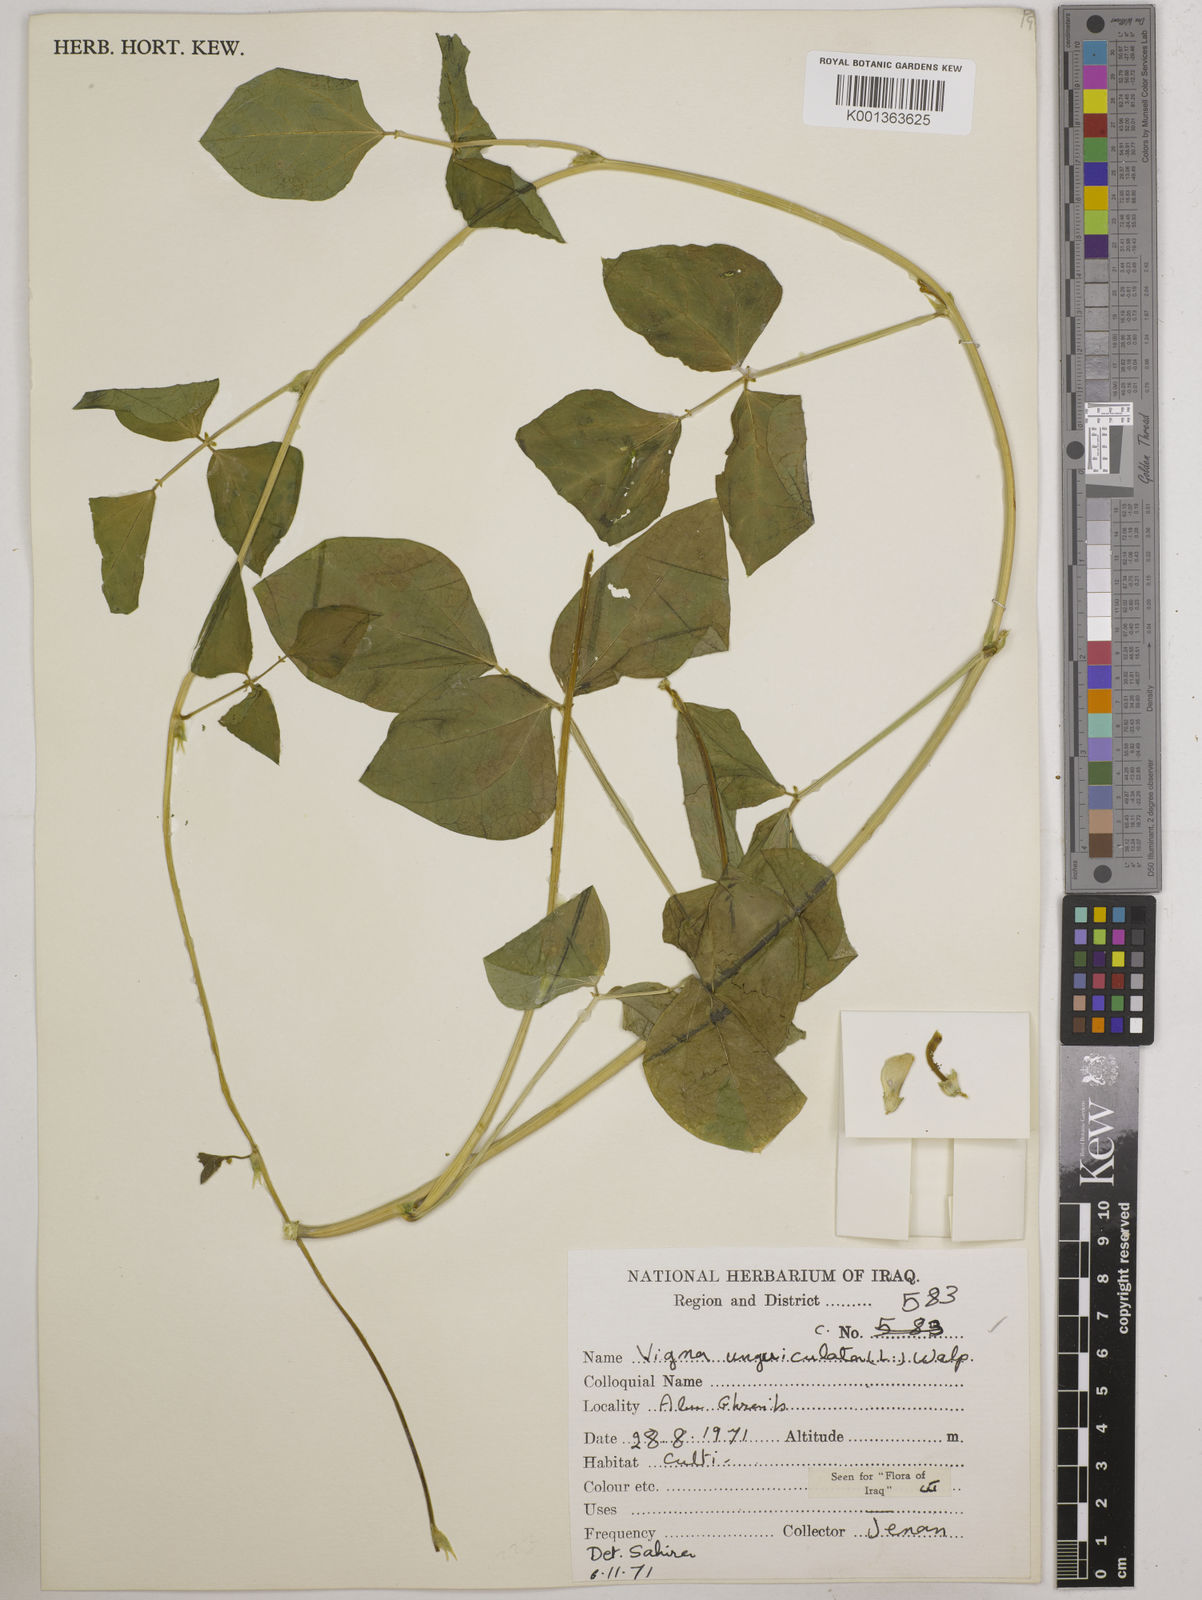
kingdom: Plantae
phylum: Tracheophyta
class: Magnoliopsida
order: Fabales
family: Fabaceae
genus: Vigna
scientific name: Vigna unguiculata
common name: Cowpea
